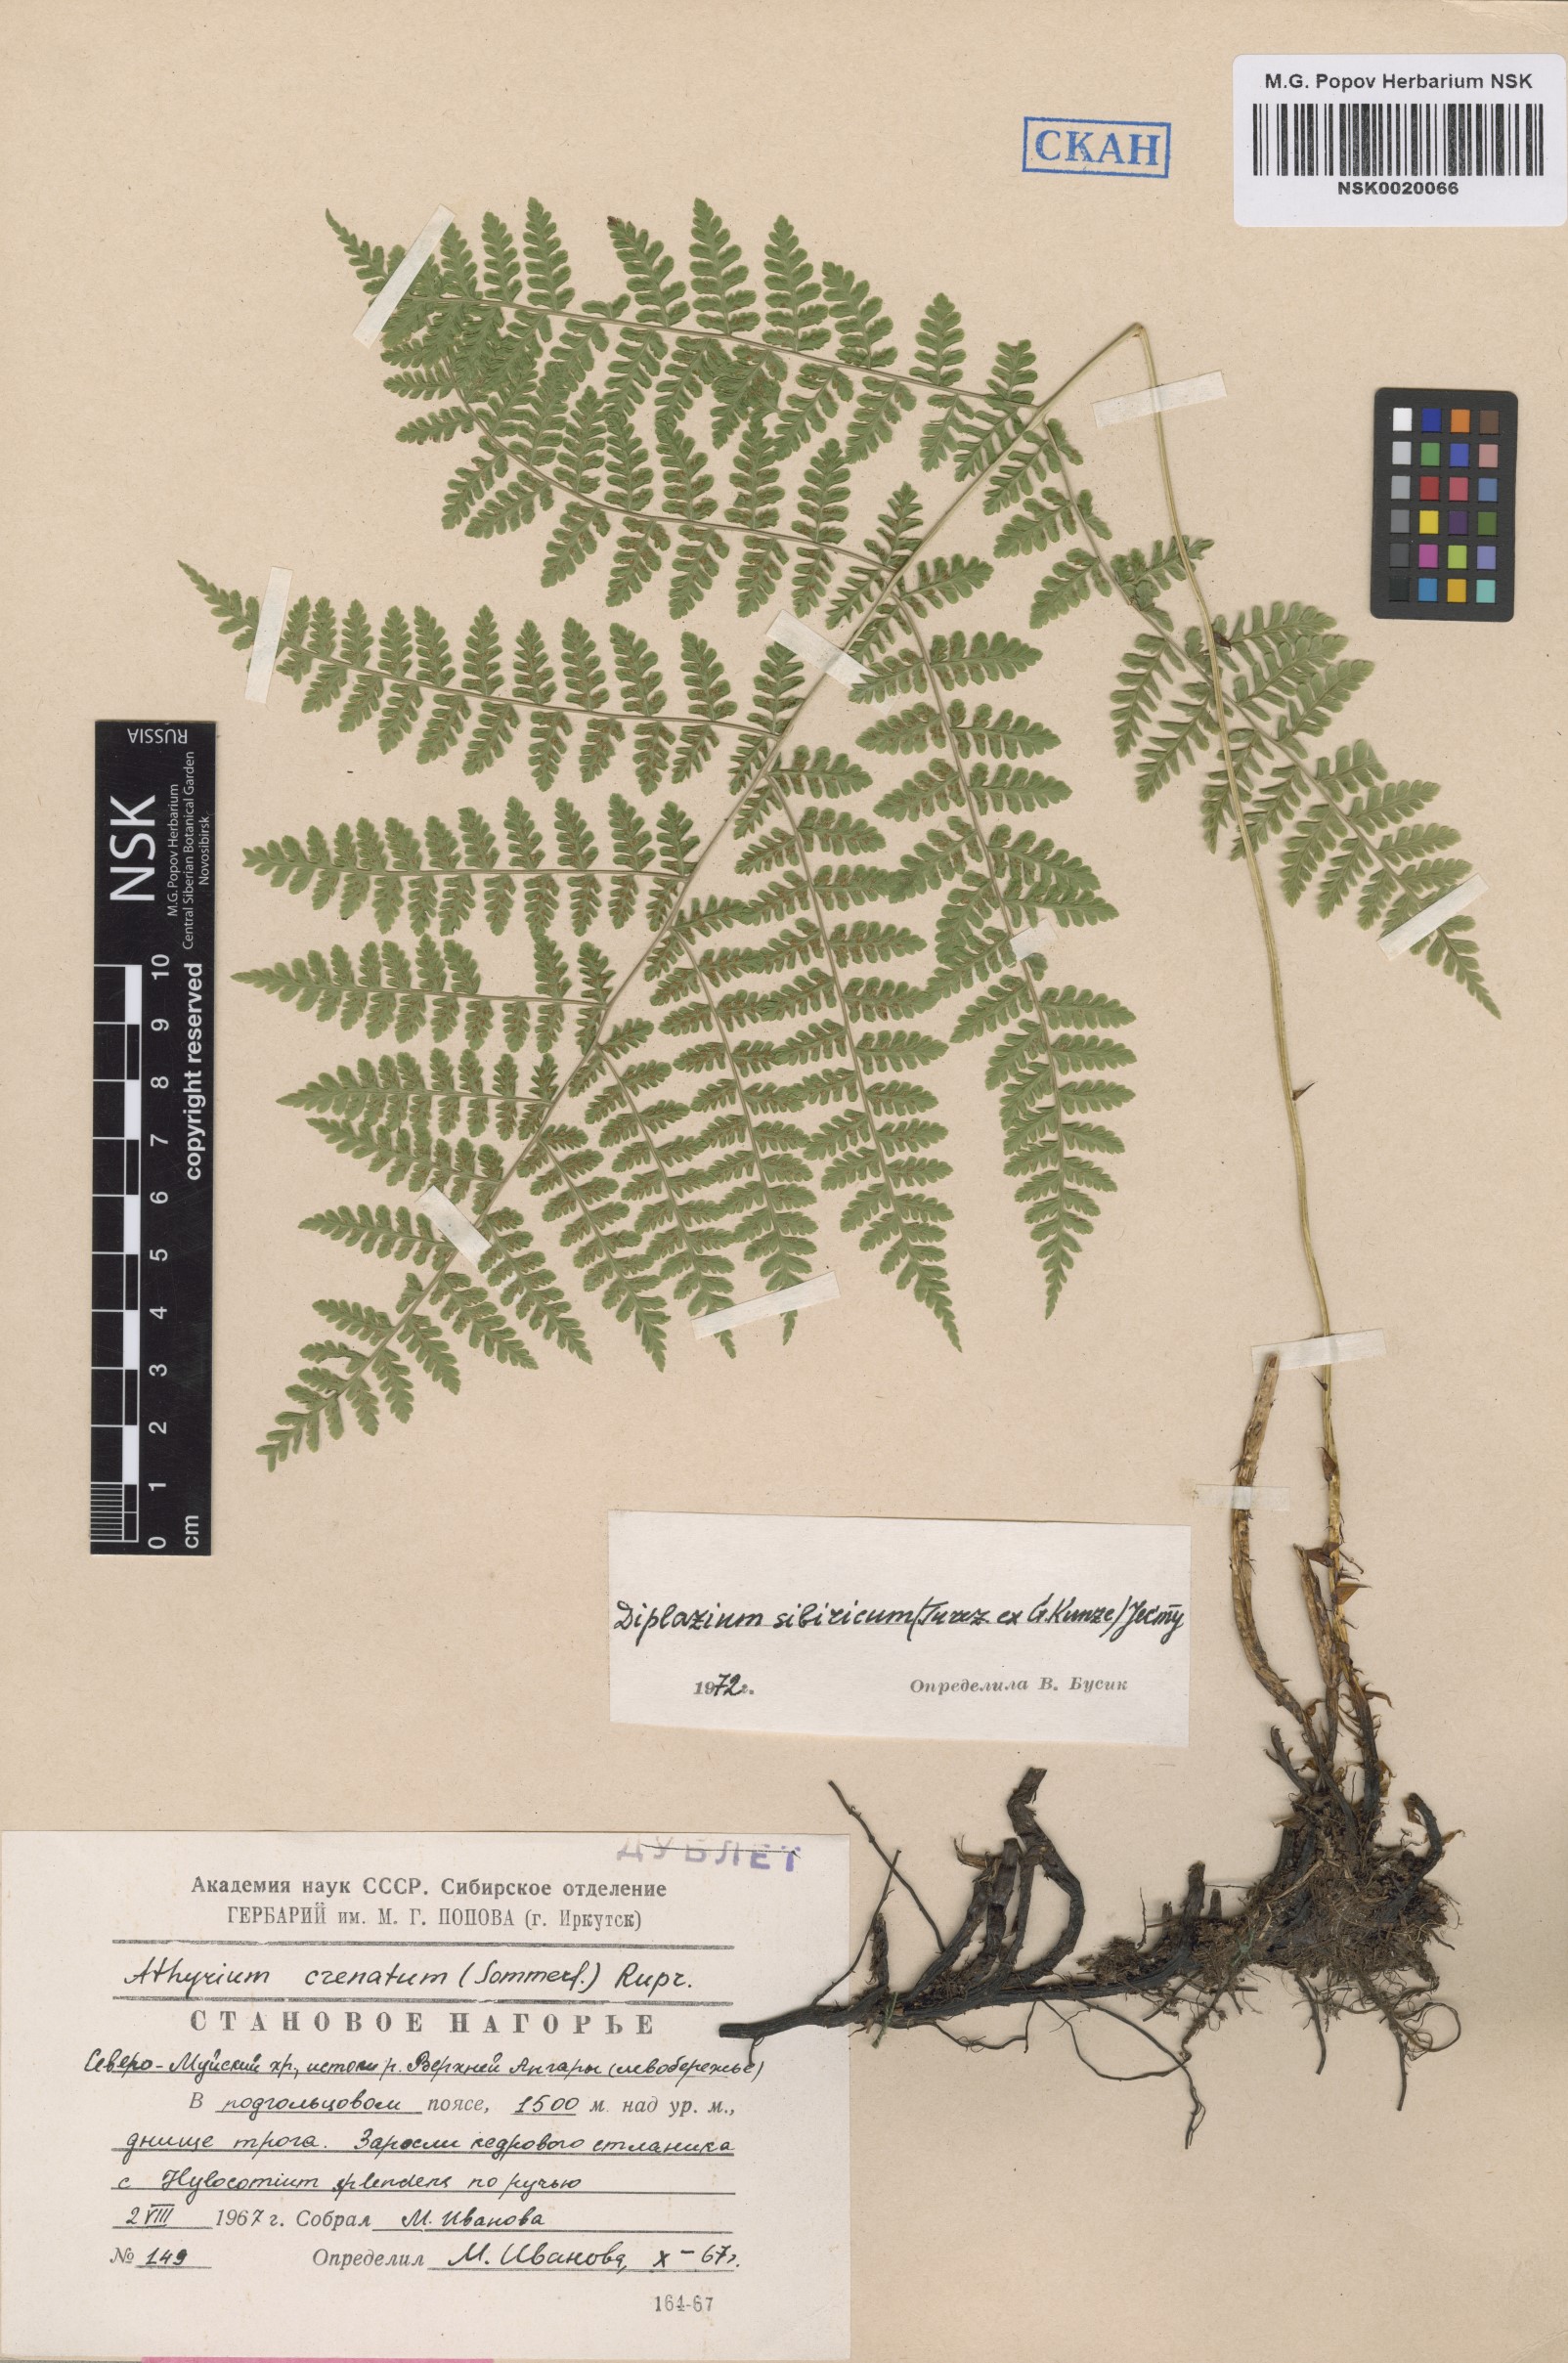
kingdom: Plantae
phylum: Tracheophyta
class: Polypodiopsida
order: Polypodiales
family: Athyriaceae
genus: Diplazium
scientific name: Diplazium sibiricum
